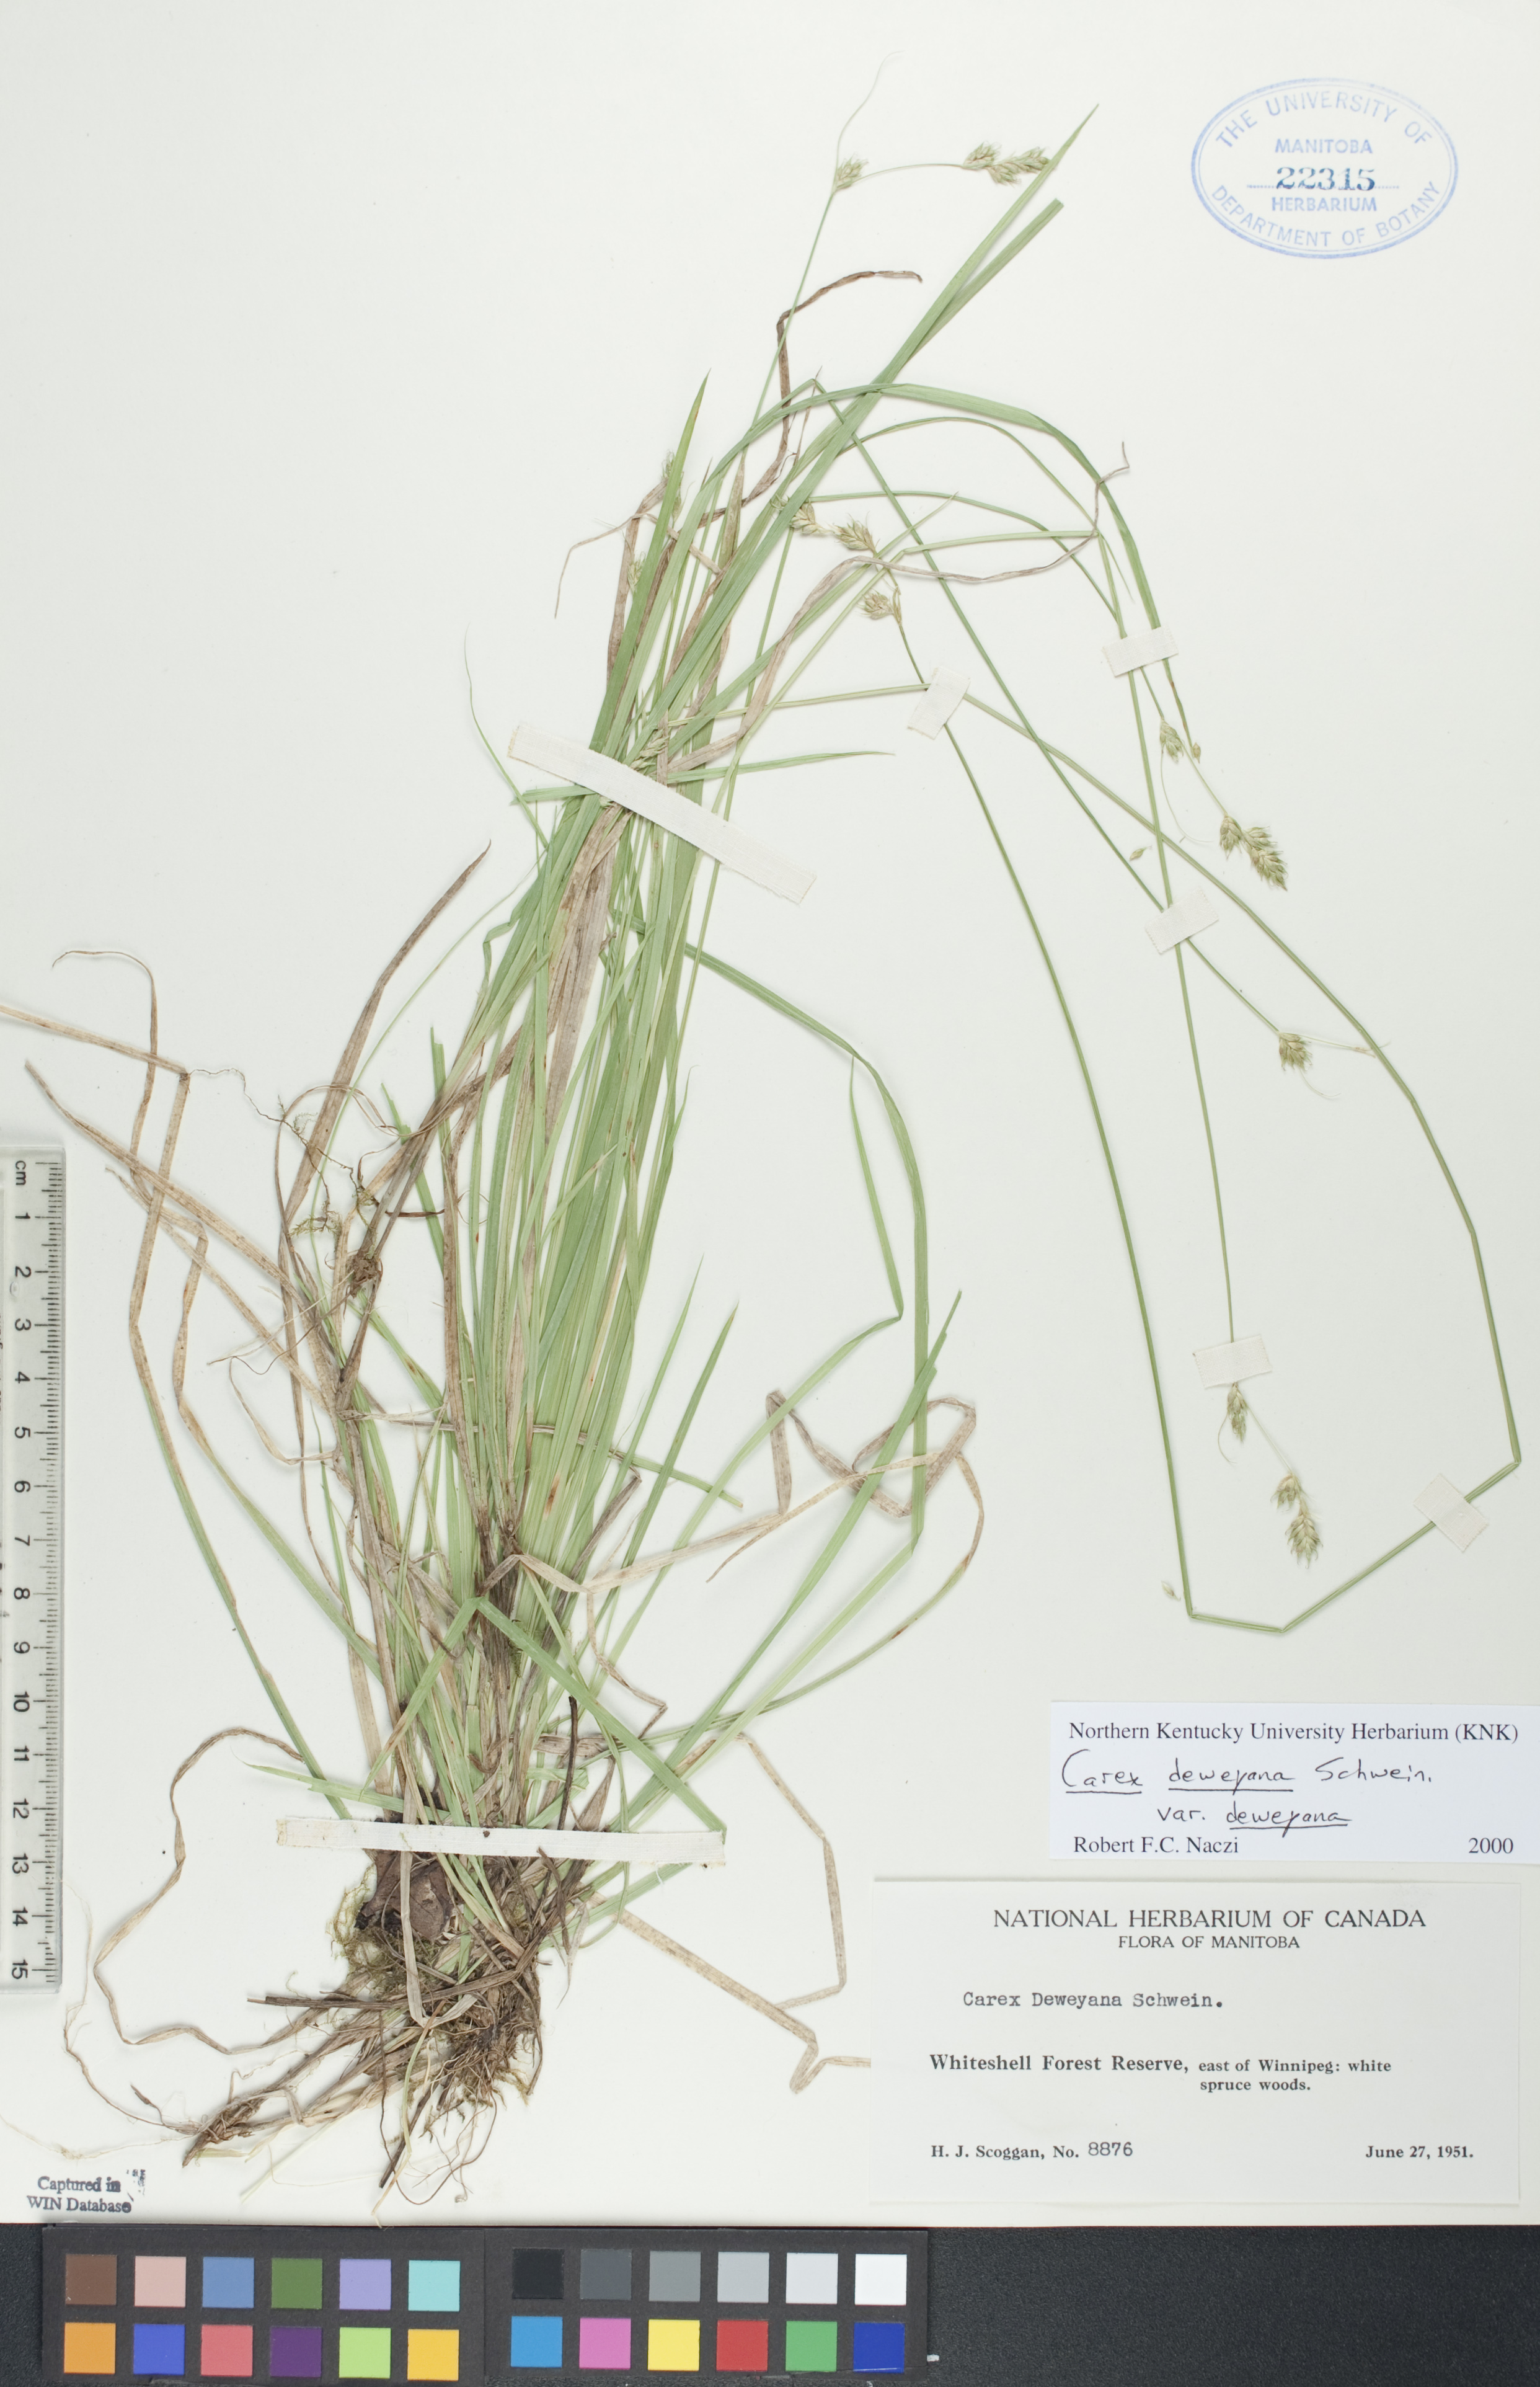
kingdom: Plantae
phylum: Tracheophyta
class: Liliopsida
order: Poales
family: Cyperaceae
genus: Carex
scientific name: Carex deweyana
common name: Dewey's sedge
